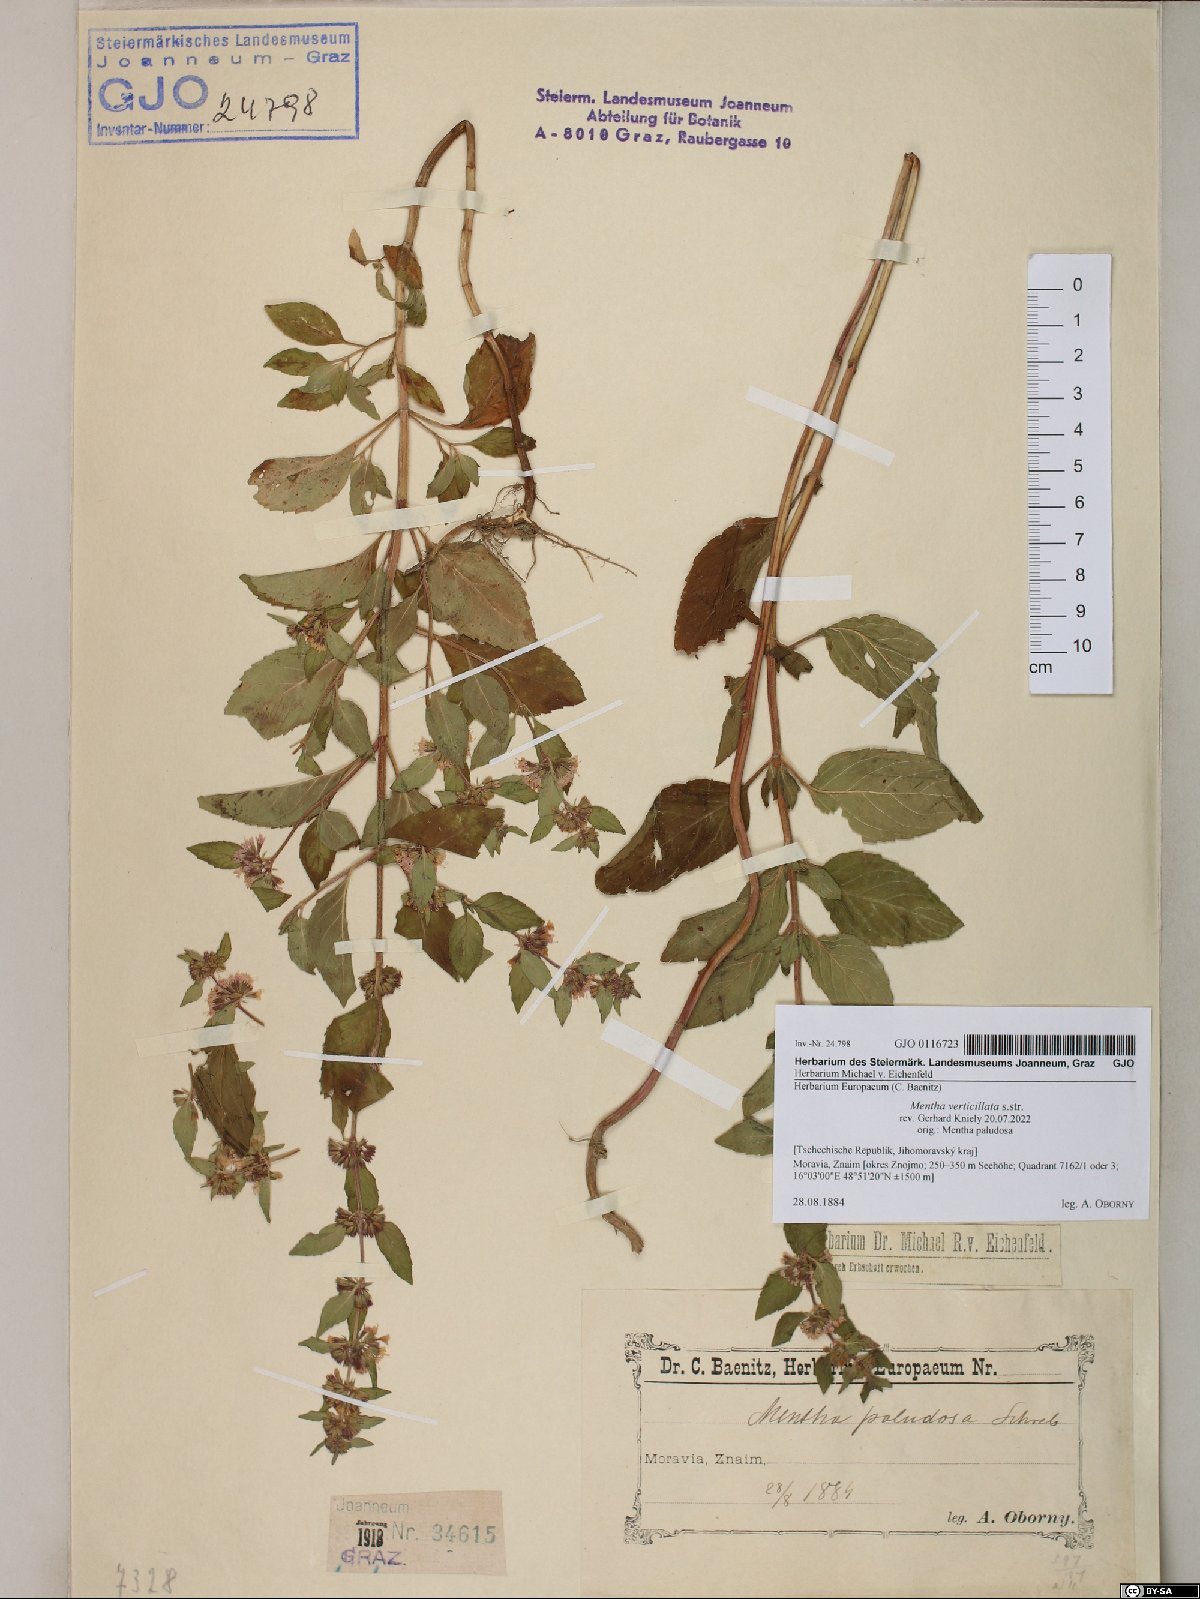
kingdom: Plantae
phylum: Tracheophyta
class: Magnoliopsida
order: Lamiales
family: Lamiaceae
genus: Mentha
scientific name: Mentha verticillata
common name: Mint
